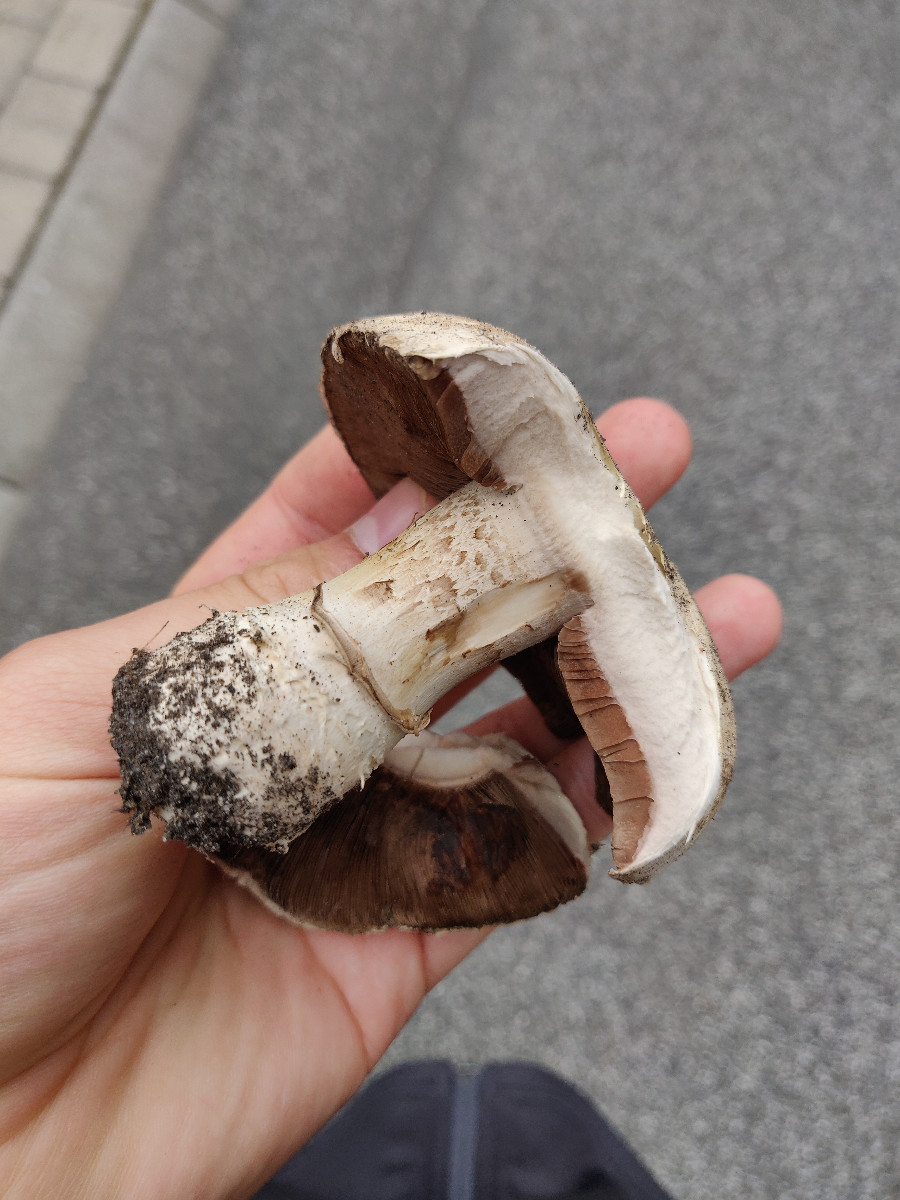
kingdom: Fungi
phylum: Basidiomycota
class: Agaricomycetes
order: Agaricales
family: Agaricaceae
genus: Agaricus
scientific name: Agaricus
